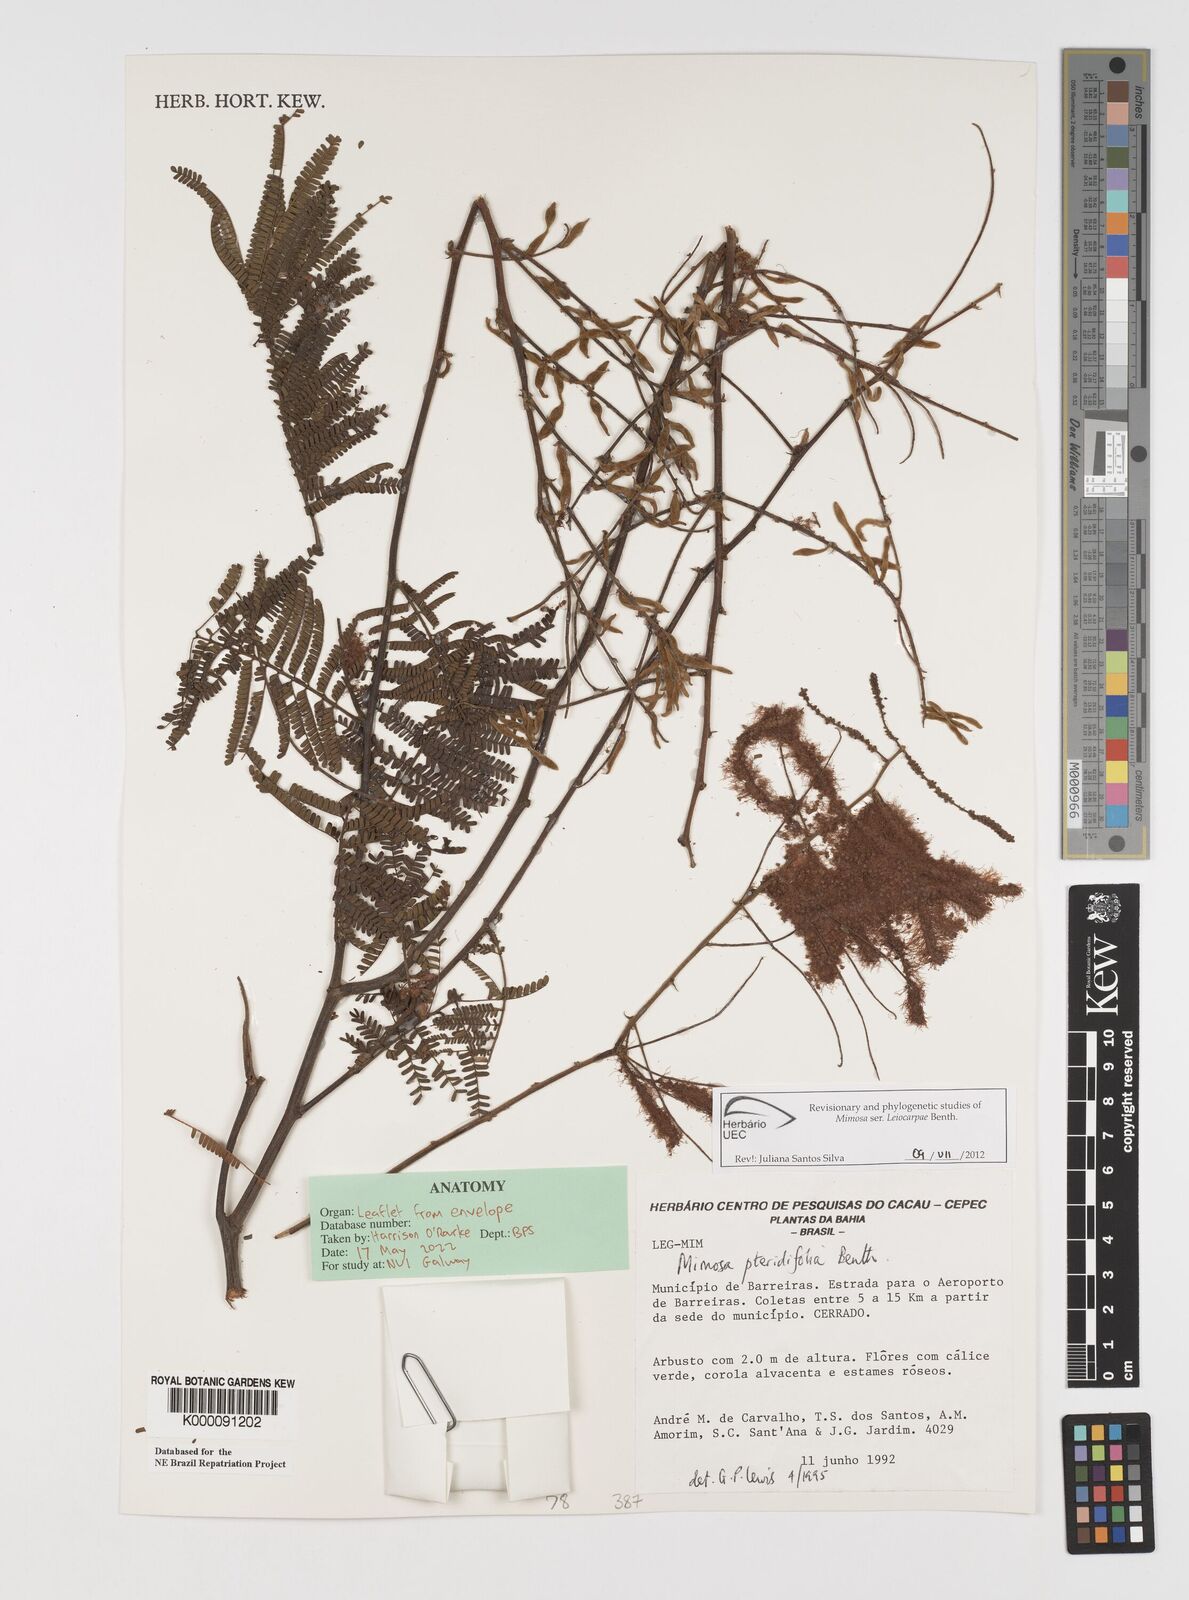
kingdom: Plantae
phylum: Tracheophyta
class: Magnoliopsida
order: Fabales
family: Fabaceae
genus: Mimosa
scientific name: Mimosa pteridifolia
